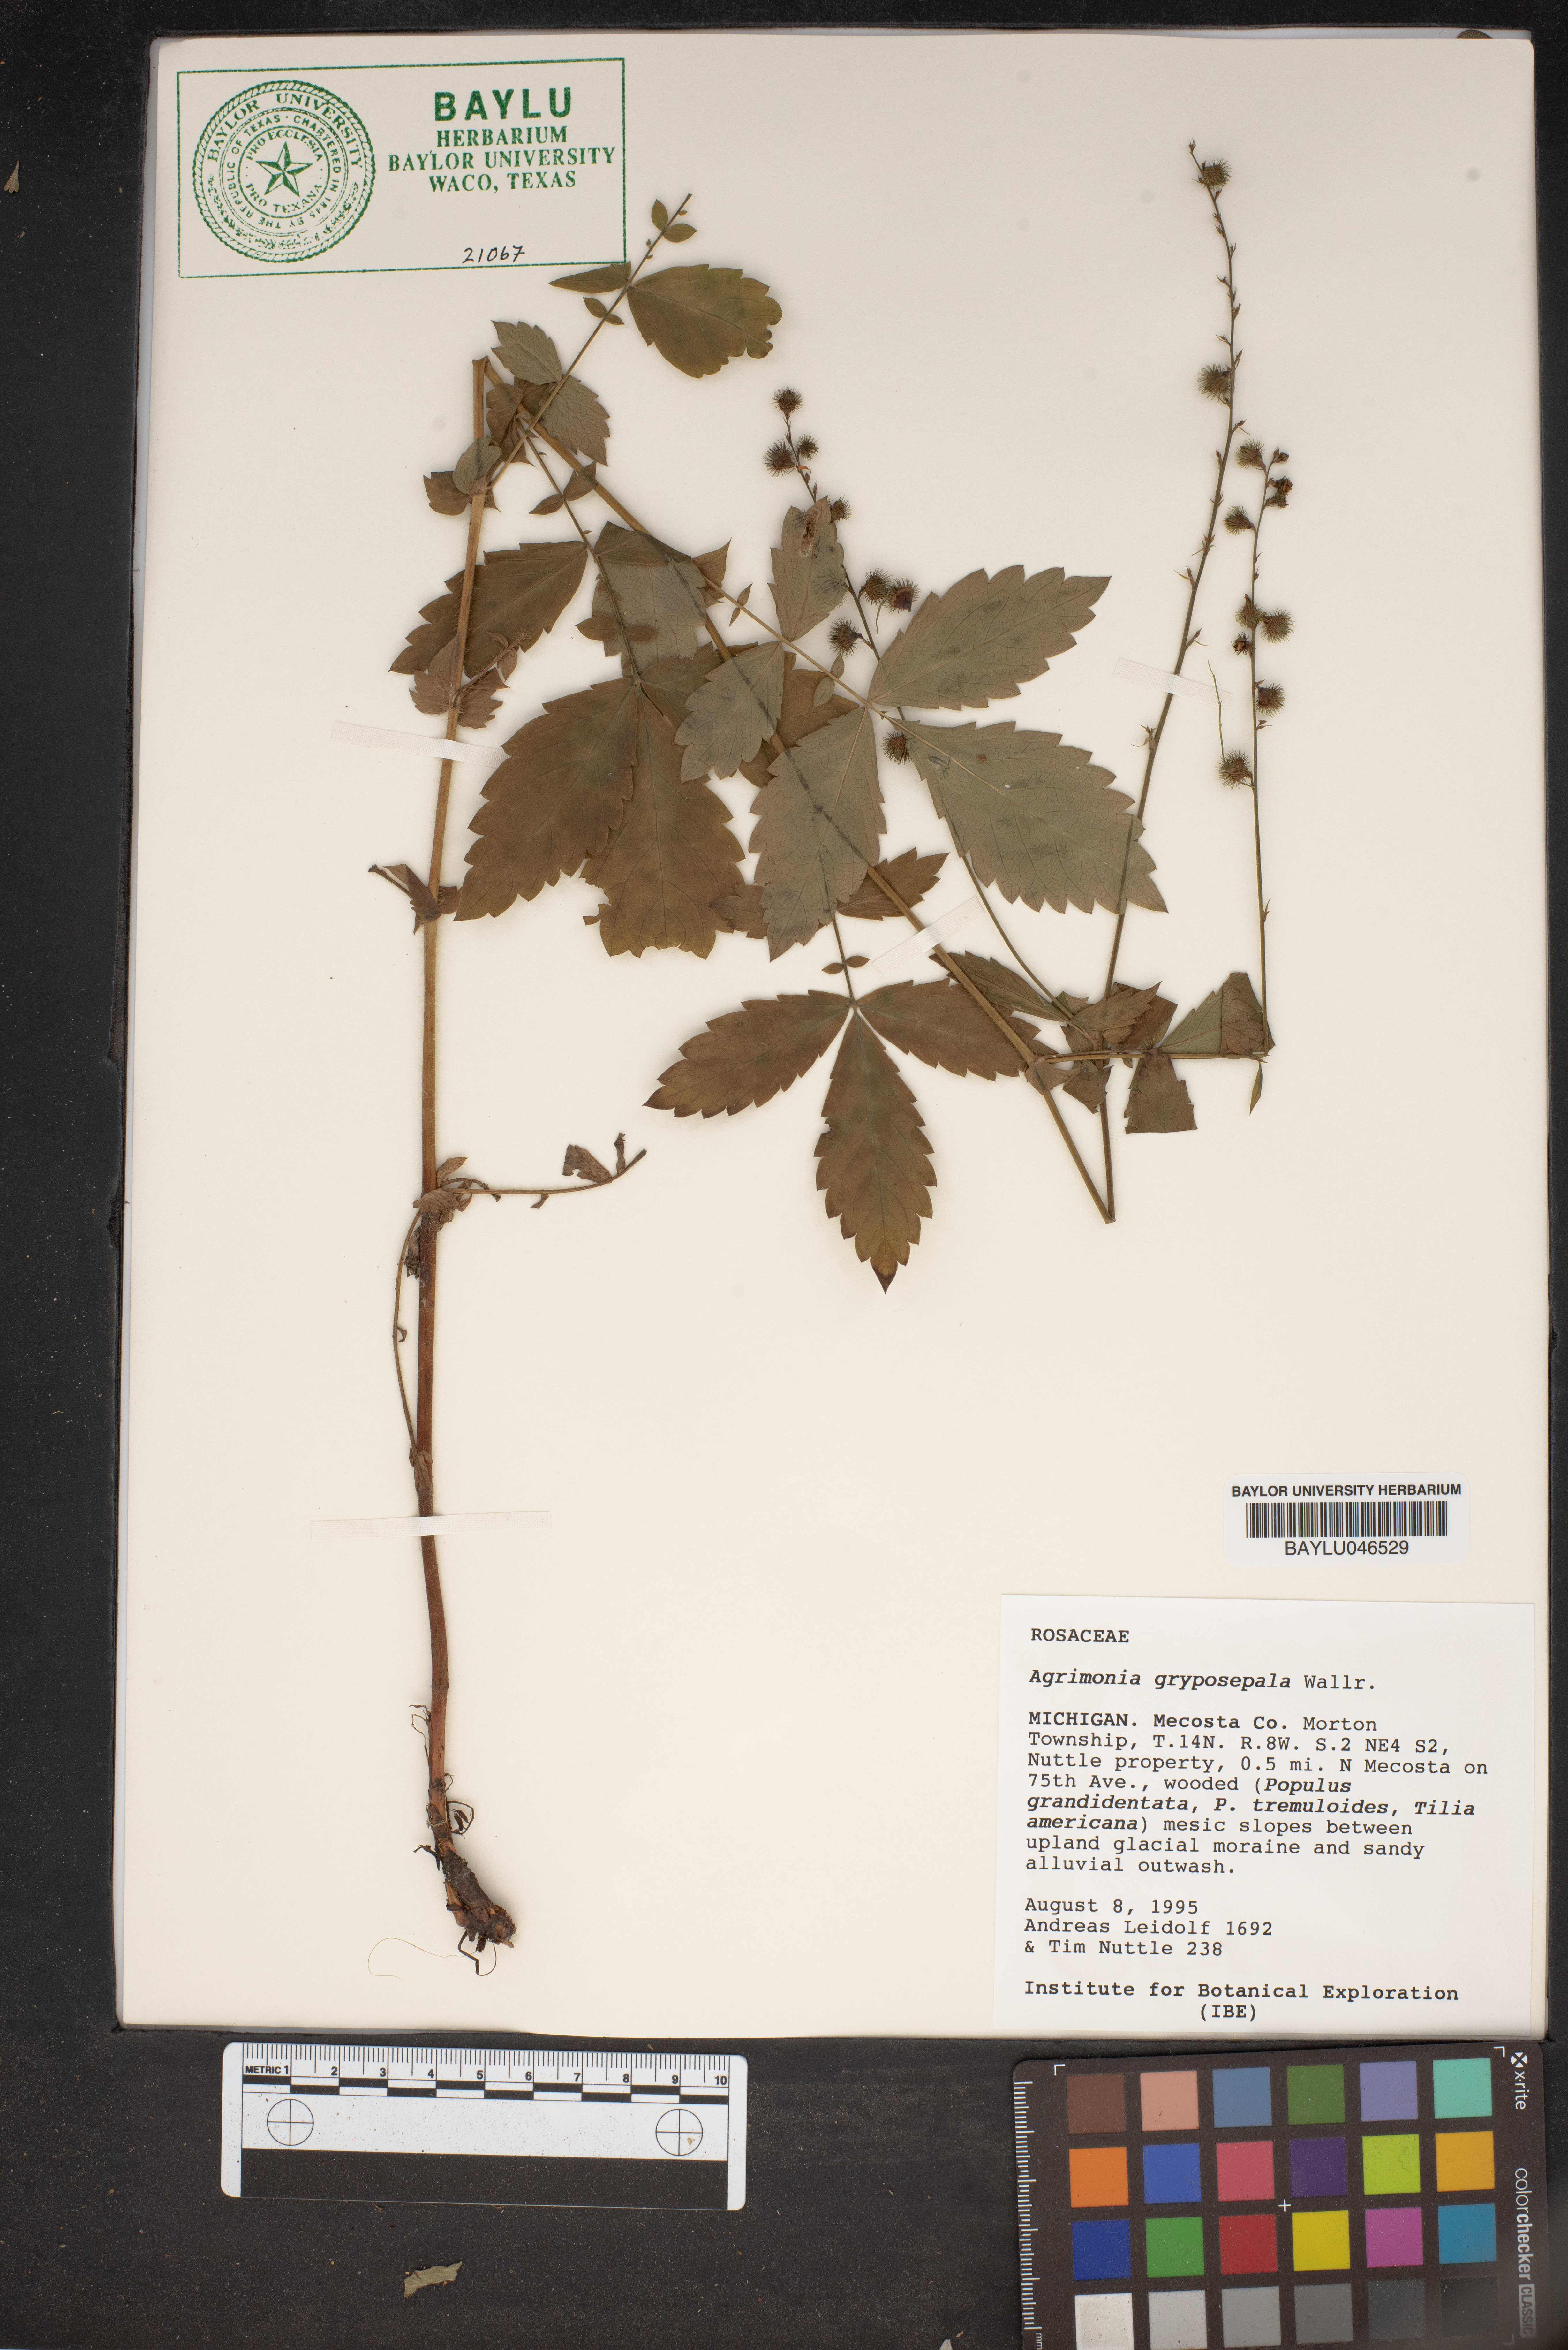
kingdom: Plantae
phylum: Tracheophyta
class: Magnoliopsida
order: Rosales
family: Rosaceae
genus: Agrimonia
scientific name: Agrimonia gryposepala
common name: Common agrimony
